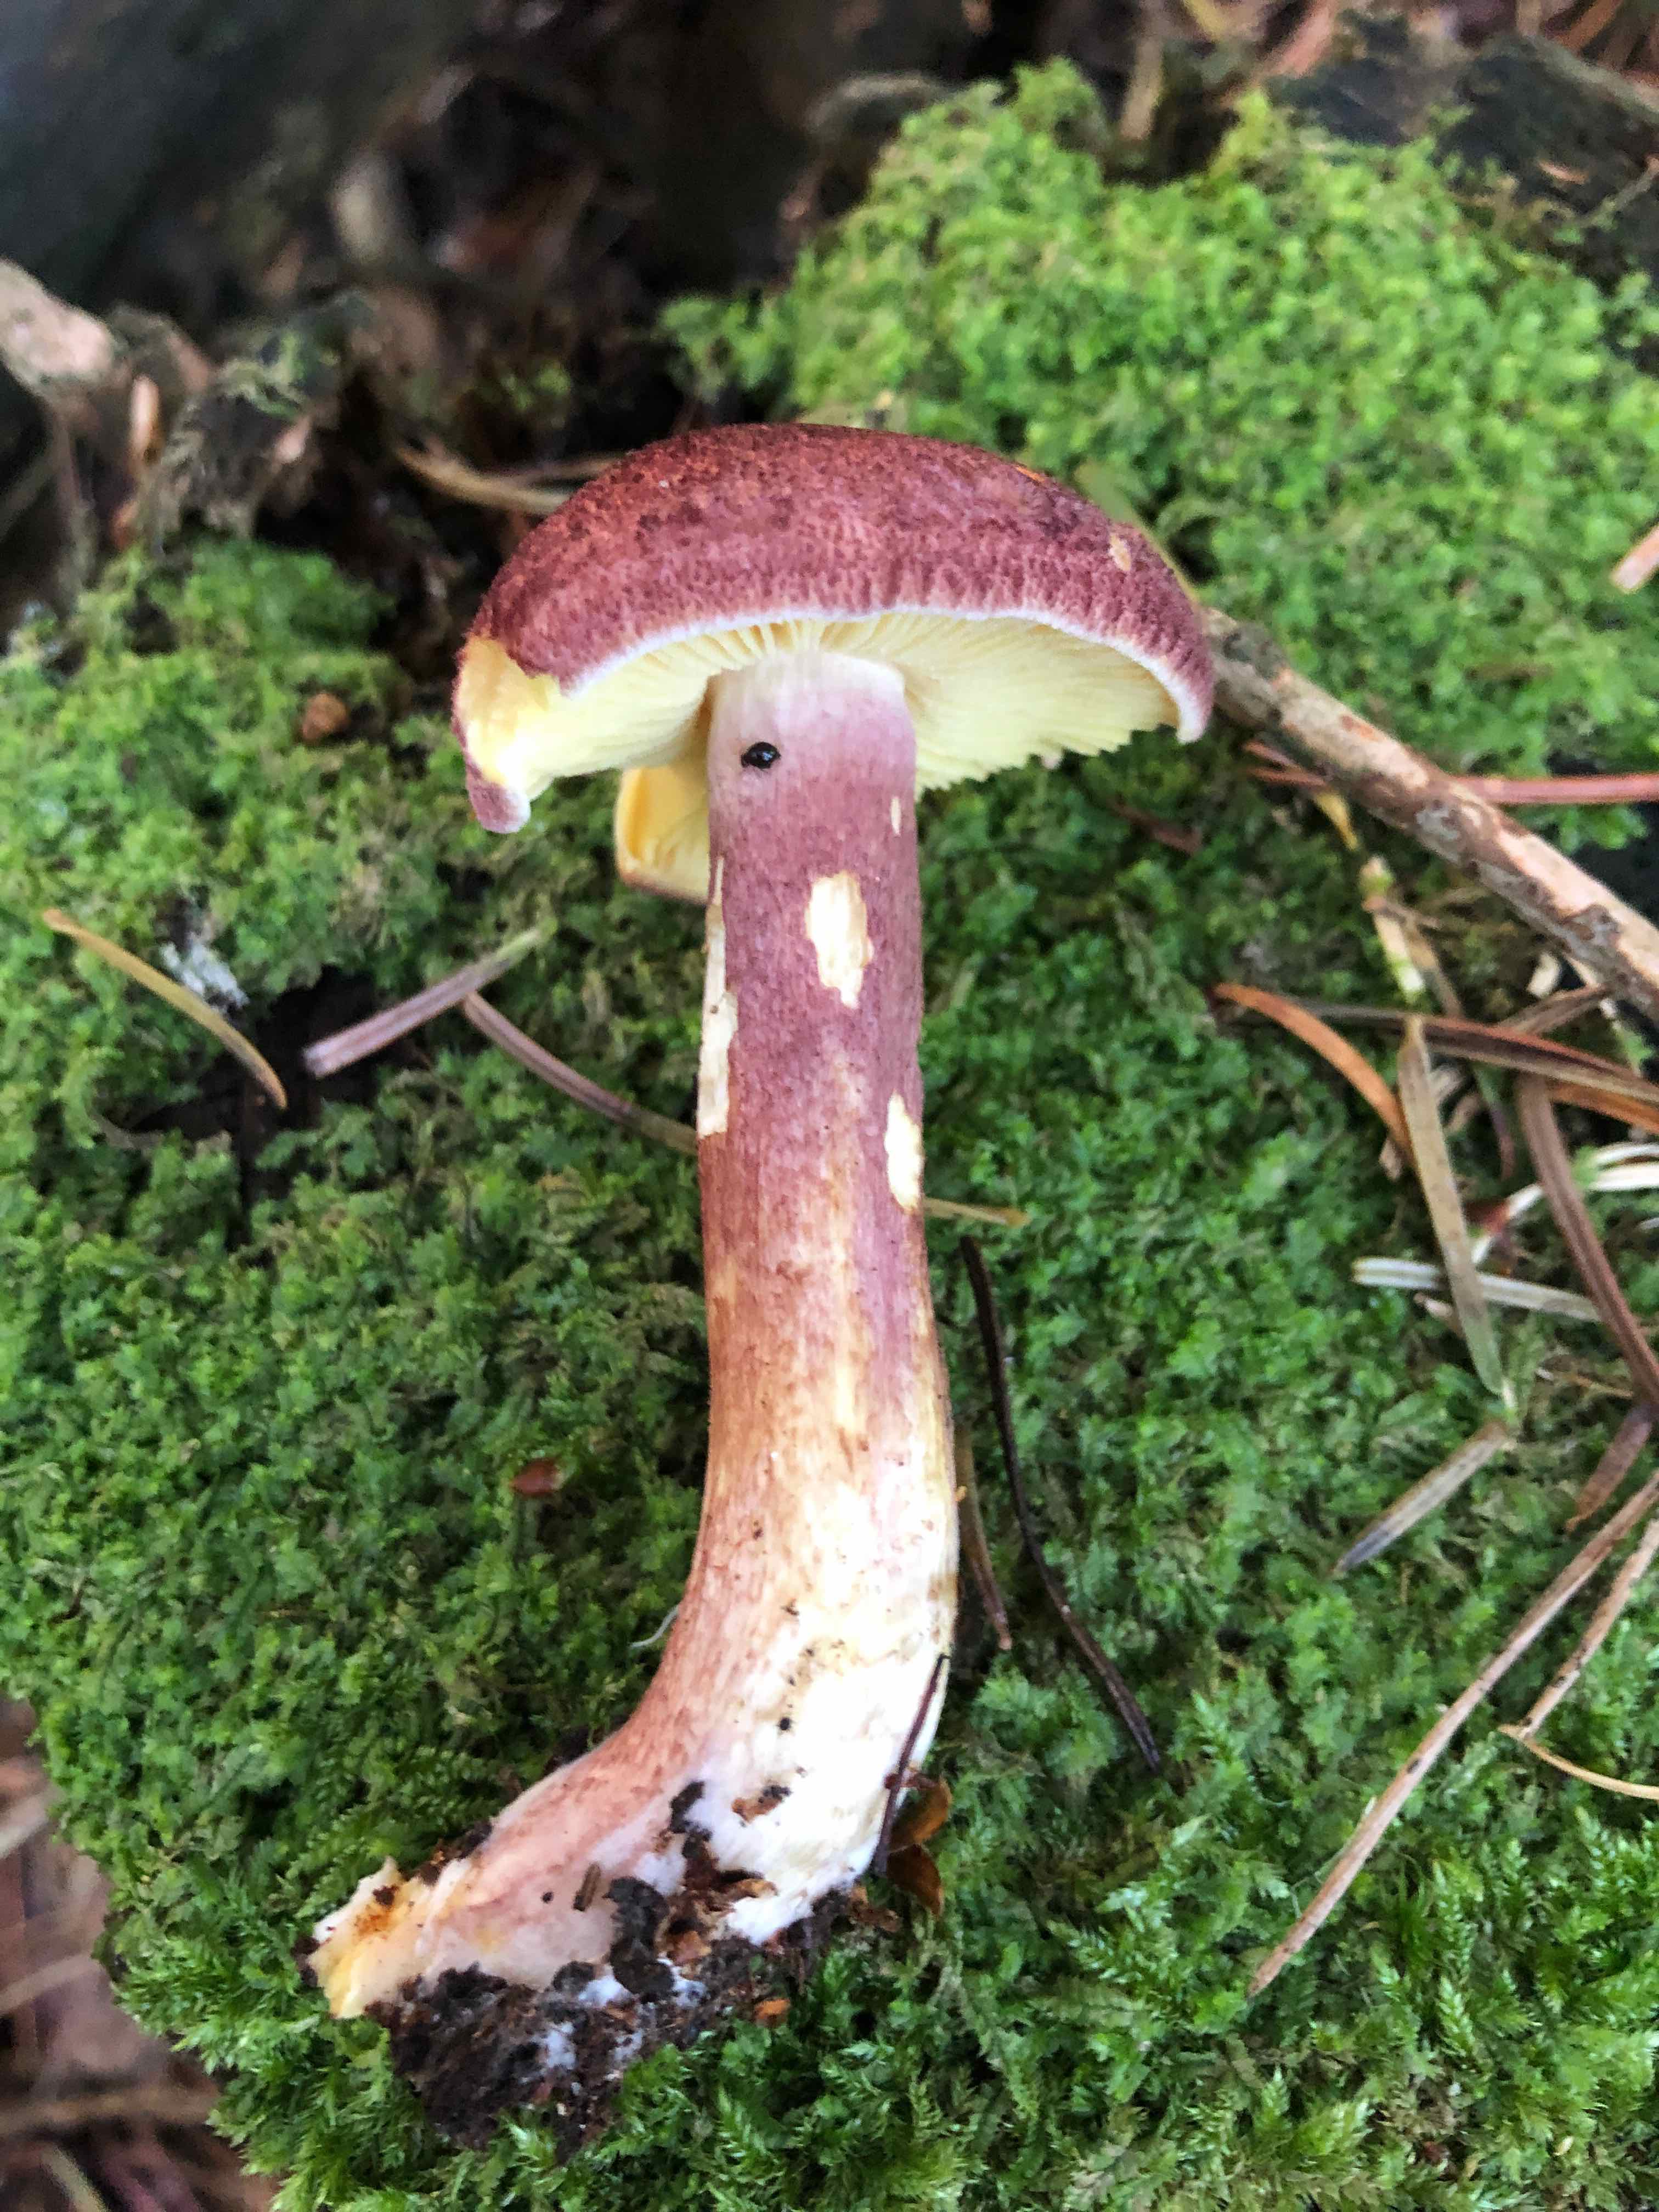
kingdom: Fungi
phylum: Basidiomycota
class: Agaricomycetes
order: Agaricales
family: Tricholomataceae
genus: Tricholomopsis
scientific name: Tricholomopsis rutilans
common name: purpur-væbnerhat
